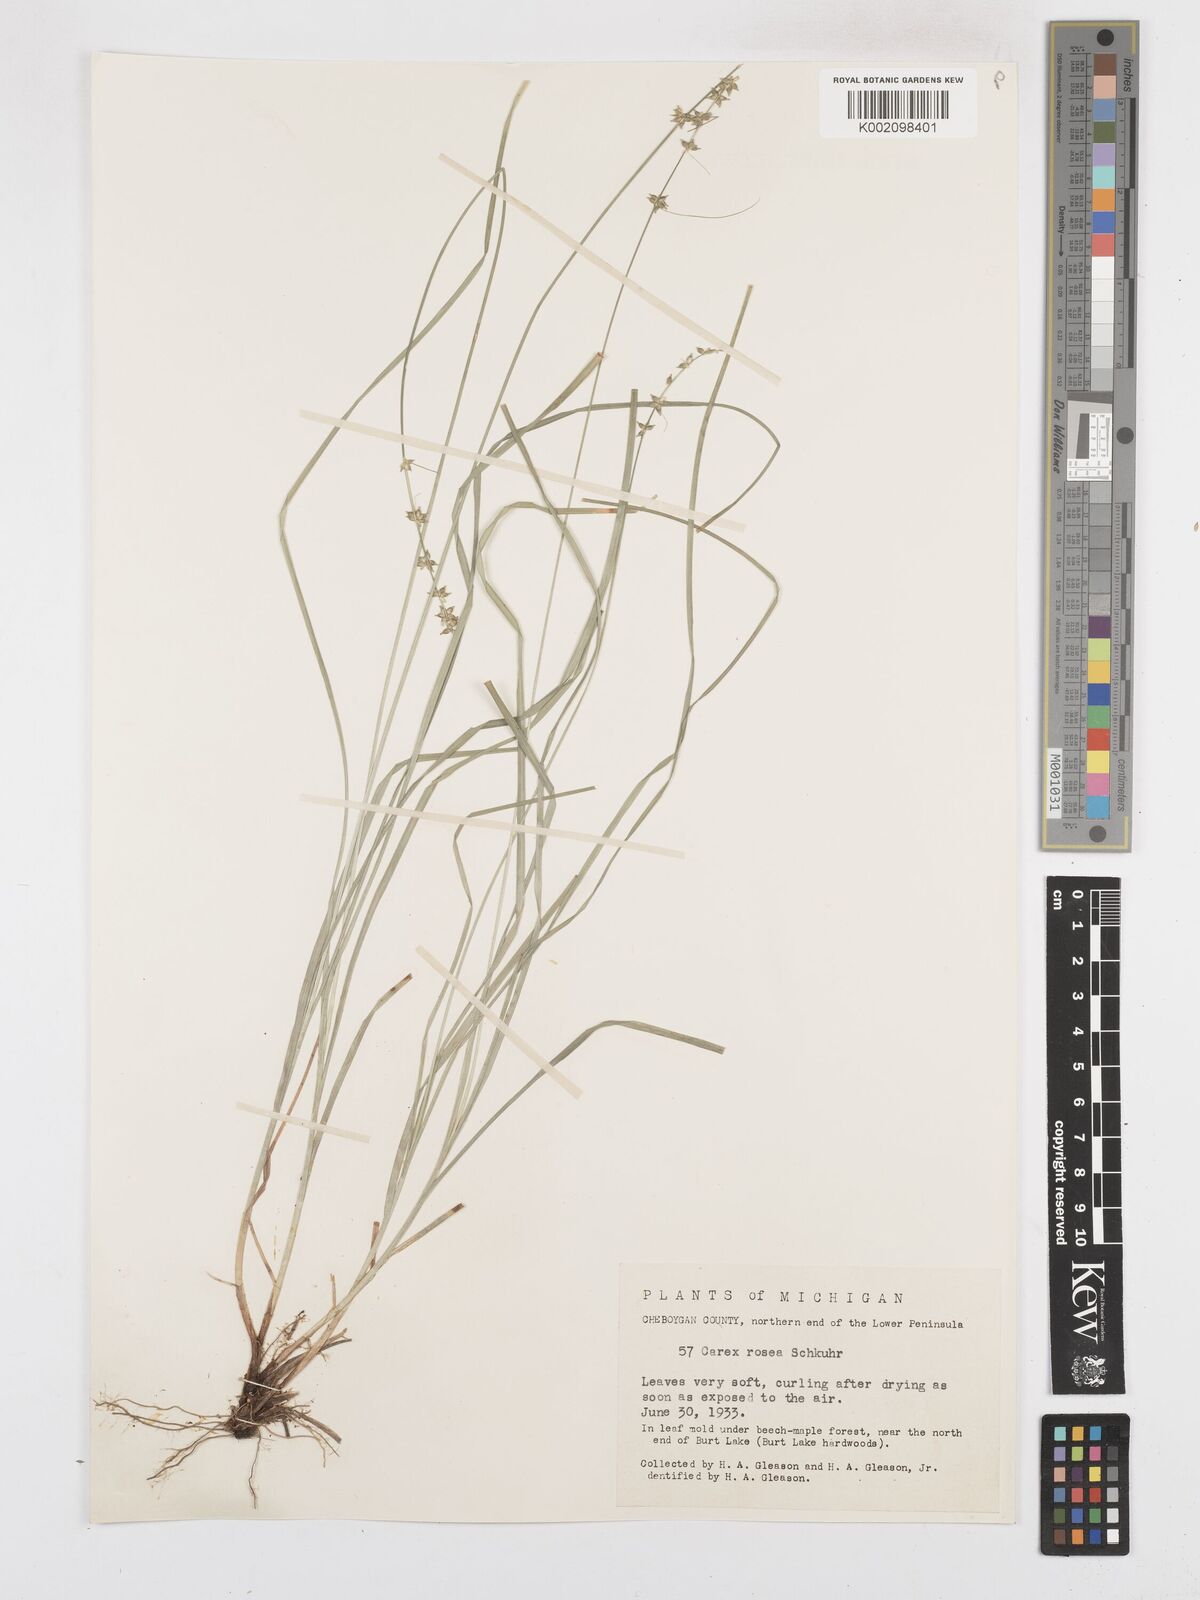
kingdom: Plantae
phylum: Tracheophyta
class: Liliopsida
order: Poales
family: Cyperaceae
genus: Carex
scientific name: Carex rosea
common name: Curly-styled wood sedge
